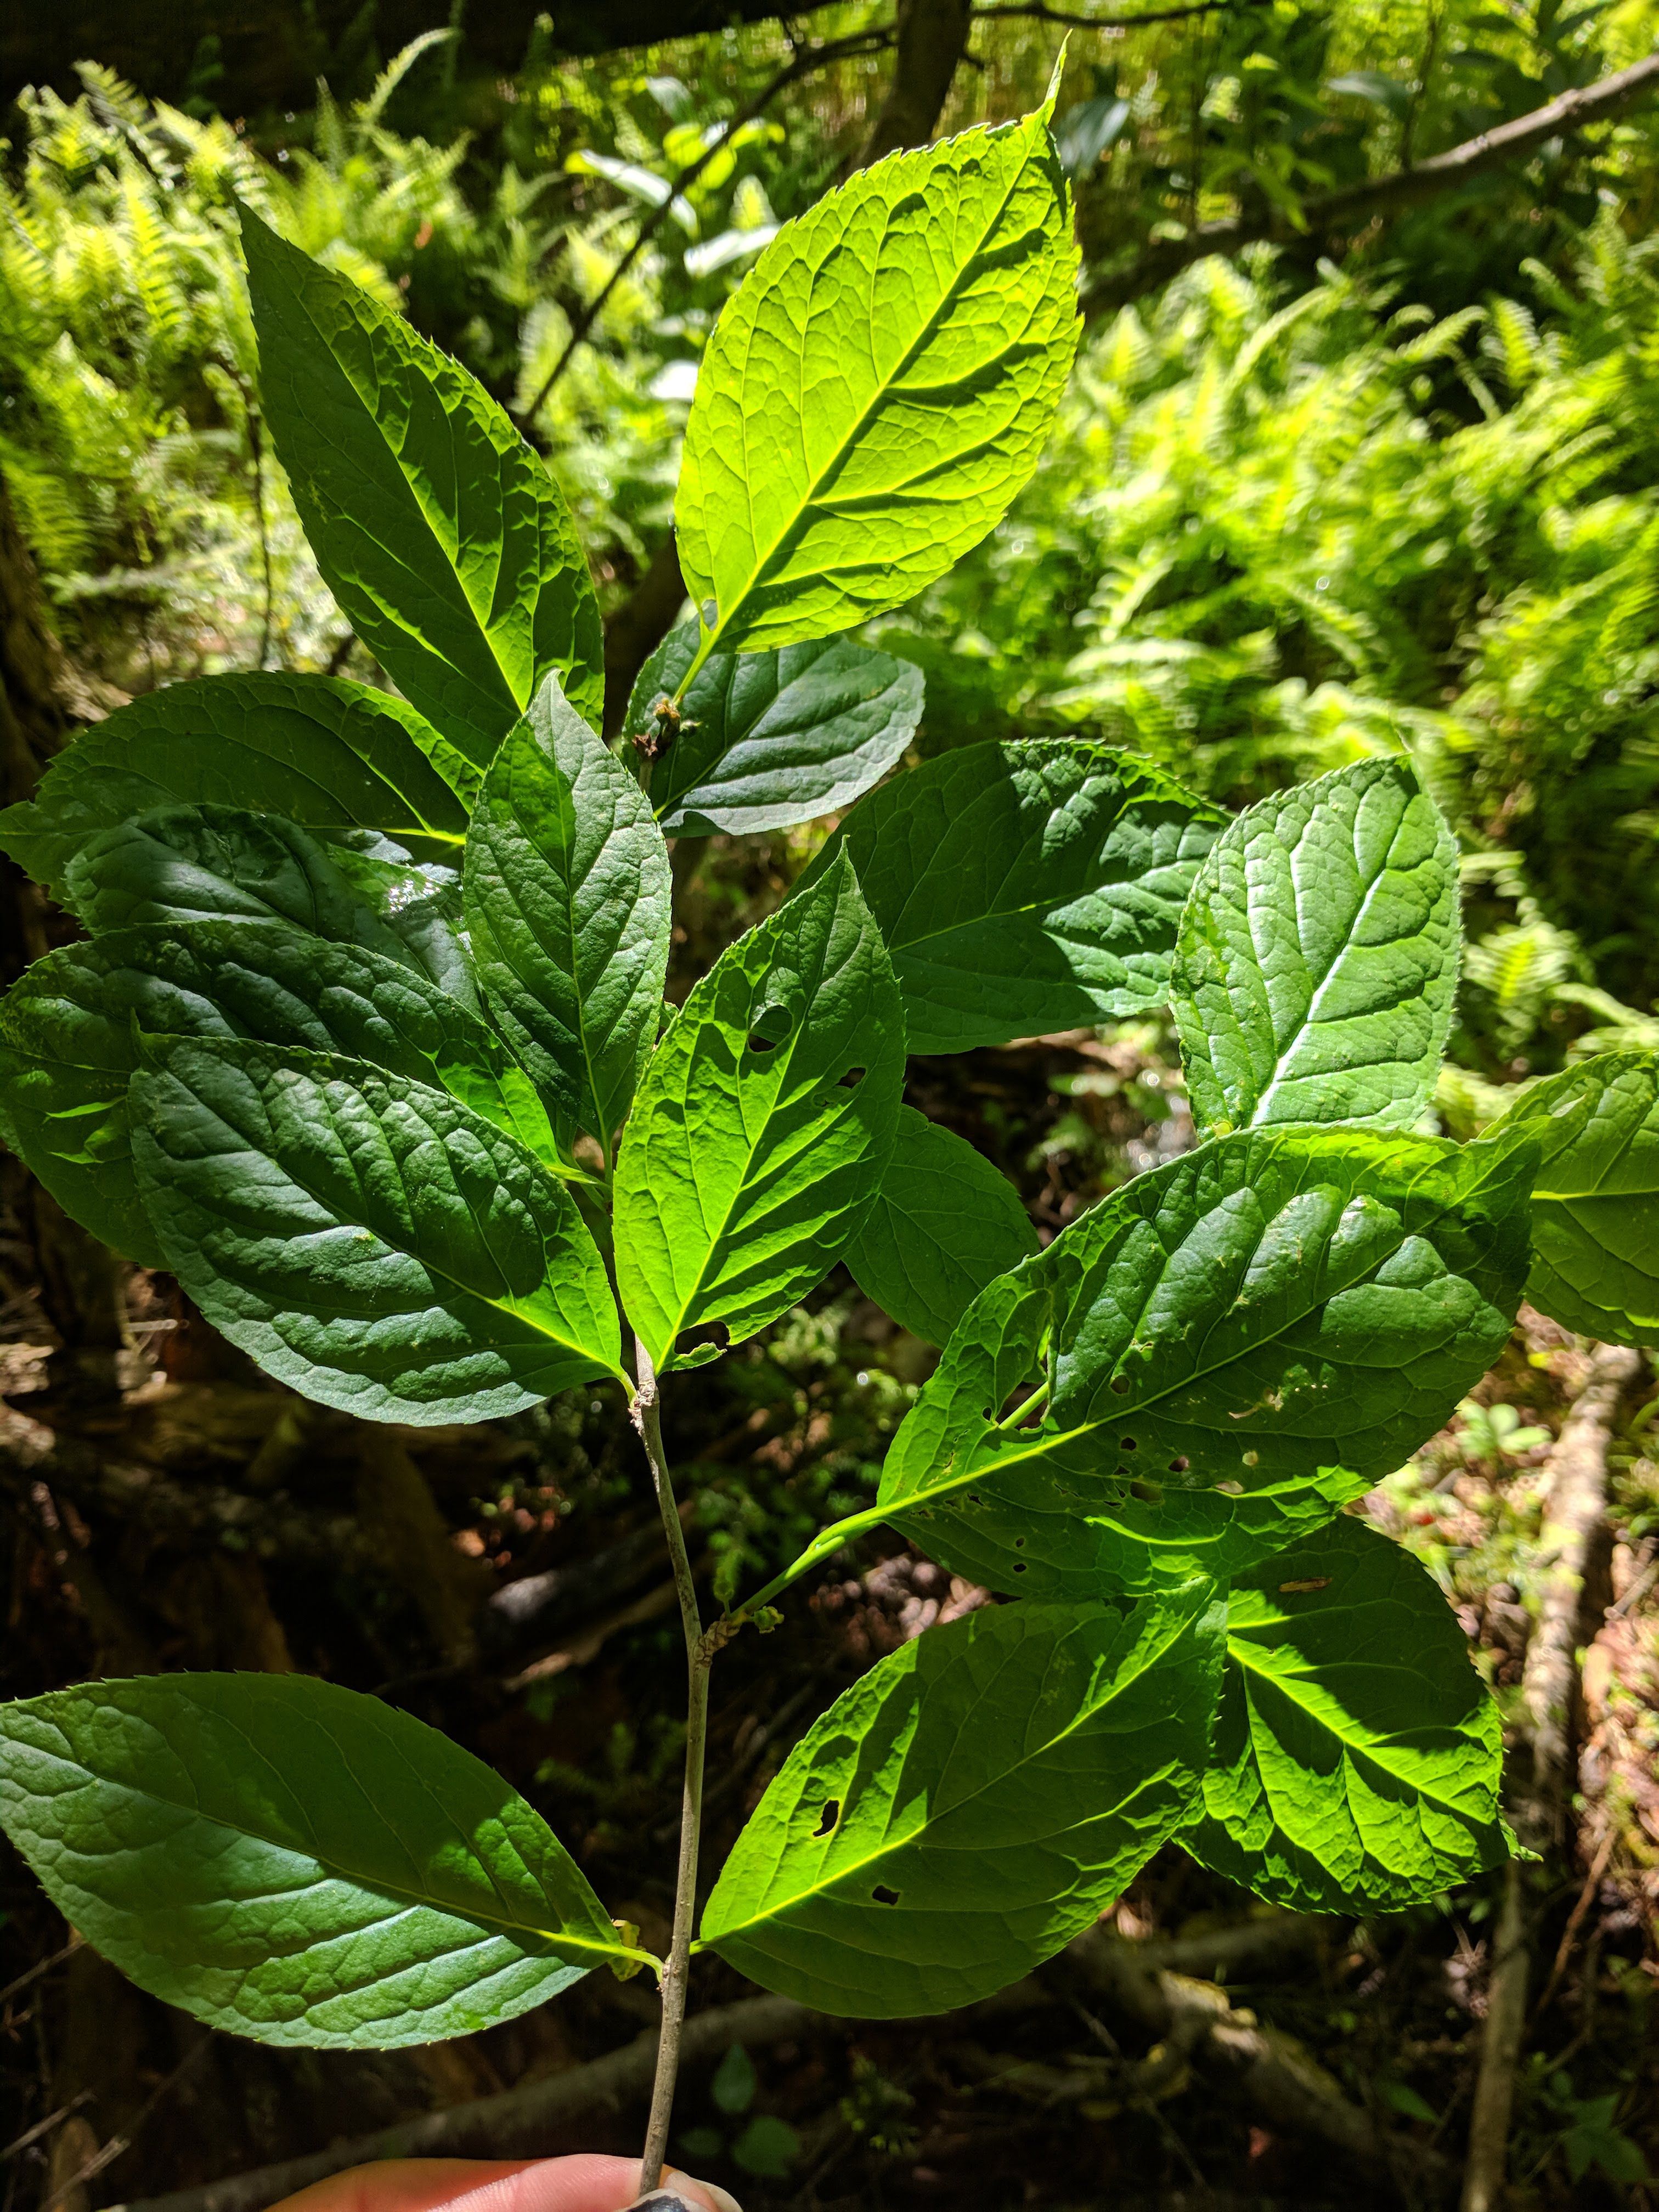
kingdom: Plantae
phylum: Tracheophyta
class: Magnoliopsida
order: Aquifoliales
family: Aquifoliaceae
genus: Ilex
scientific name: Ilex montana
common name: Mountain winterberry
